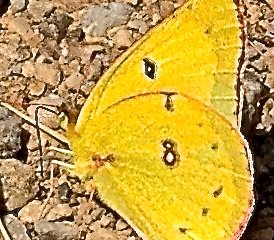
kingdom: Animalia
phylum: Arthropoda
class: Insecta
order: Lepidoptera
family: Pieridae
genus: Colias
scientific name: Colias eurytheme
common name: Orange Sulphur
